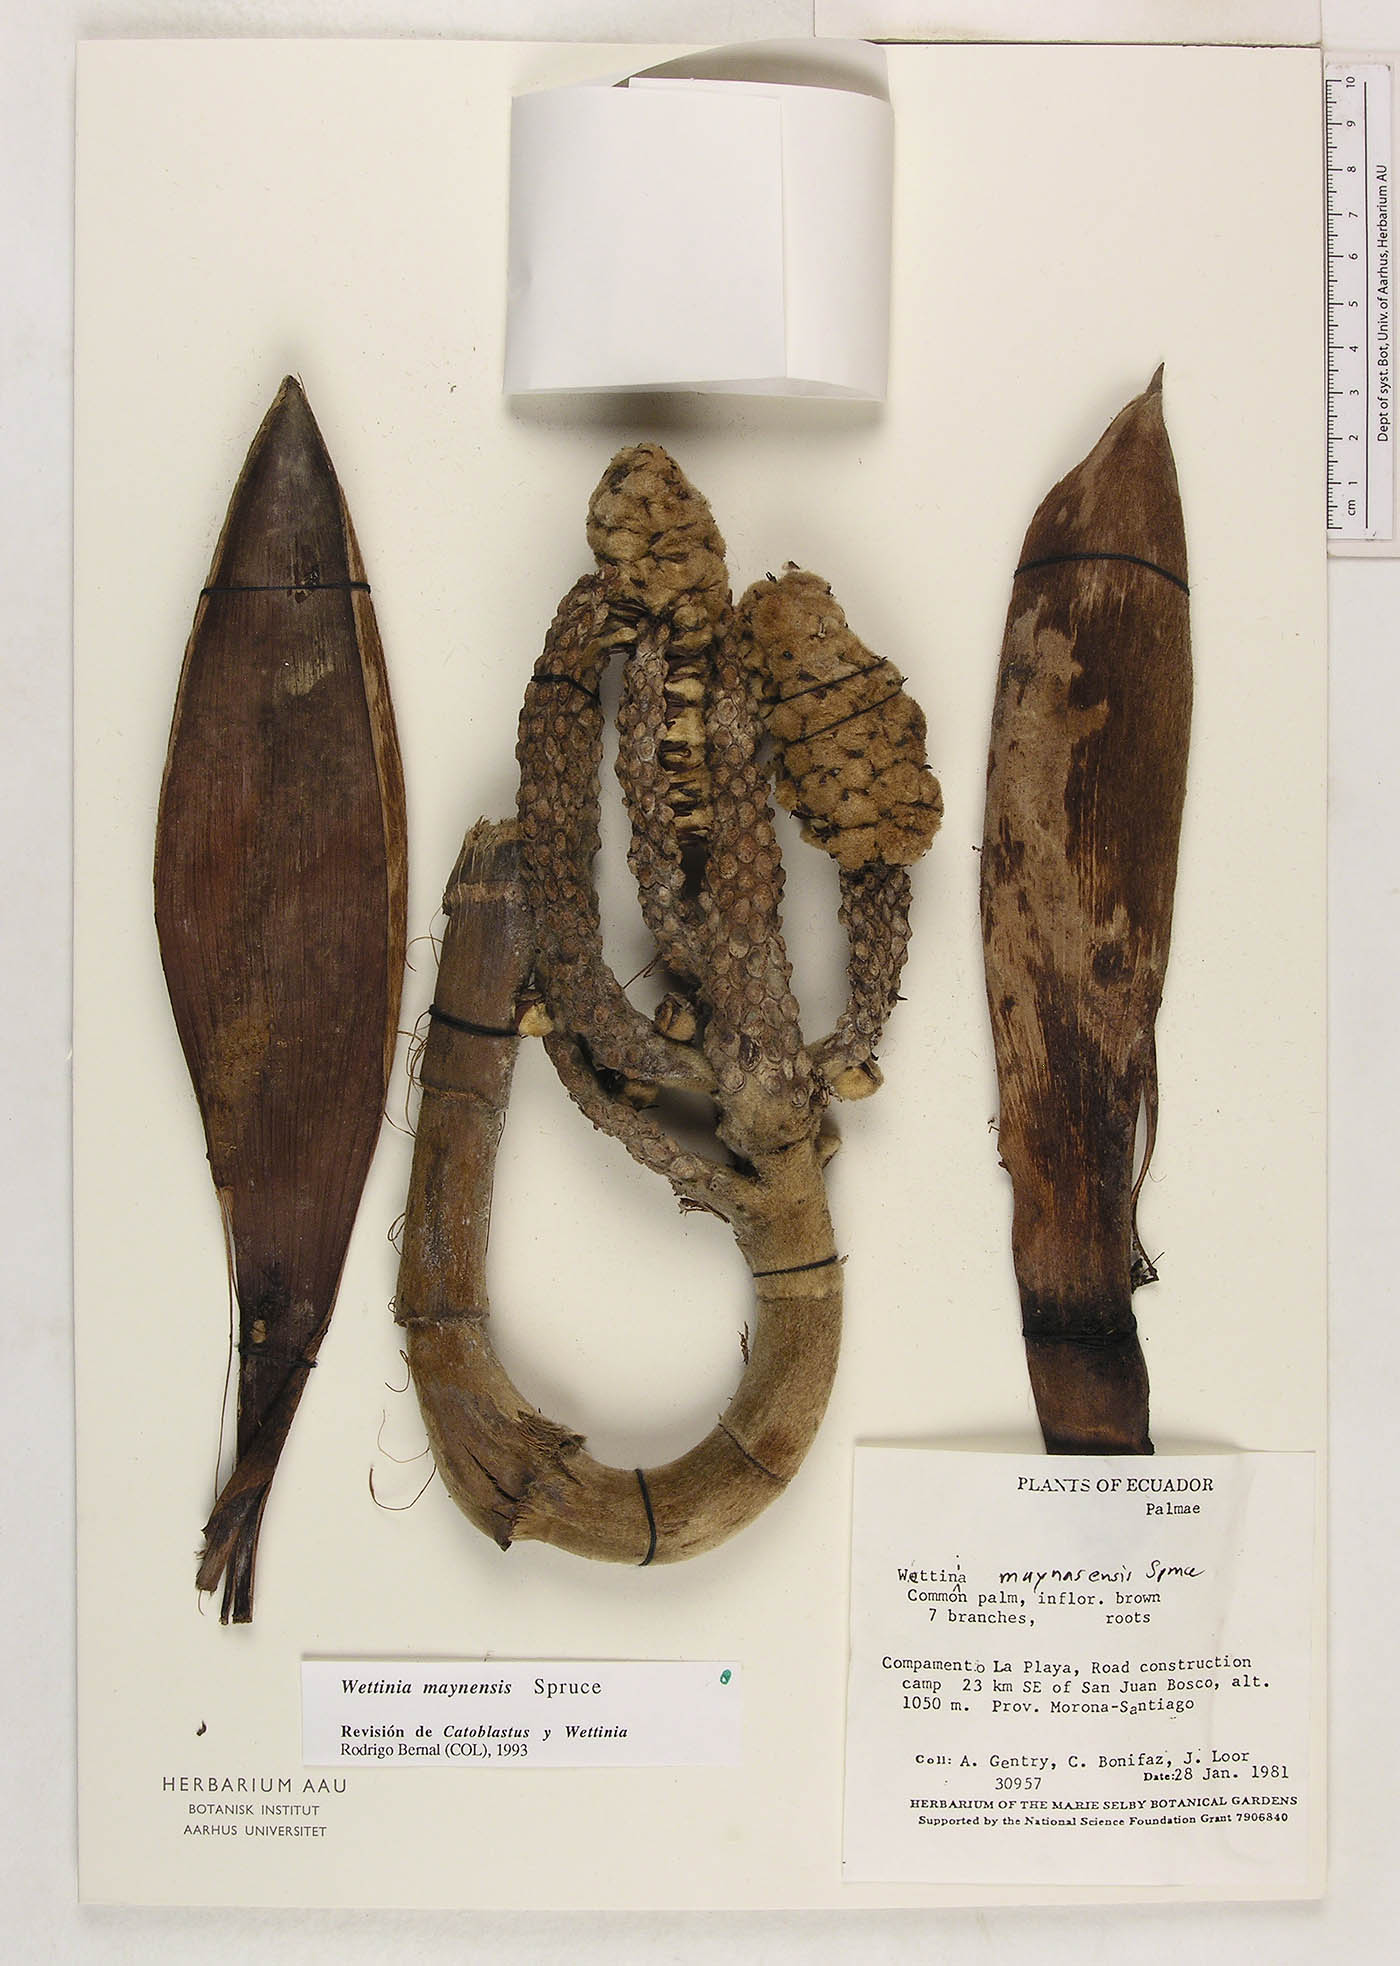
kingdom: Plantae
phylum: Tracheophyta
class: Liliopsida
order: Arecales
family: Arecaceae
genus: Wettinia
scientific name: Wettinia maynensis
